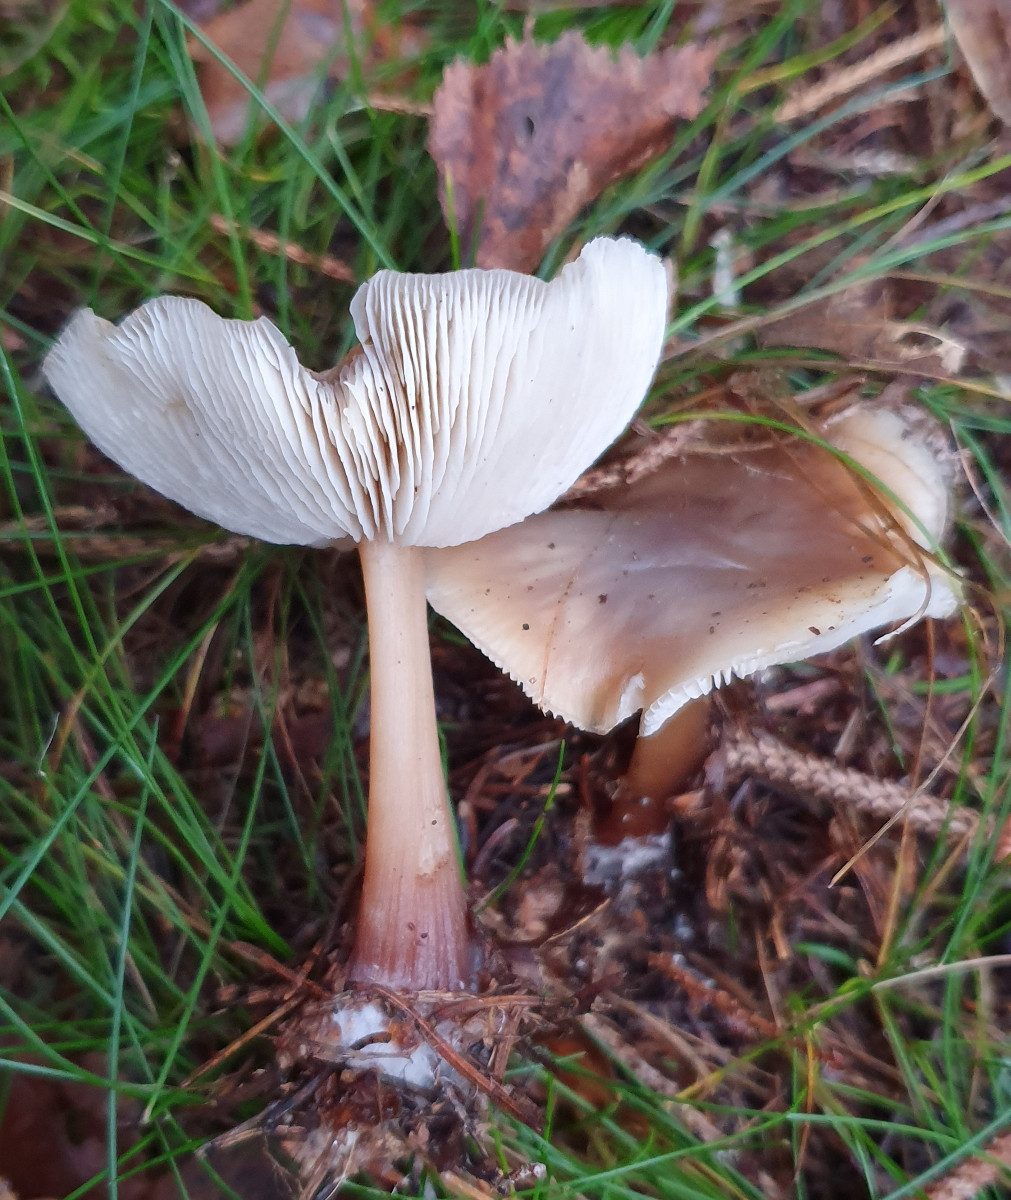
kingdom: Fungi
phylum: Basidiomycota
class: Agaricomycetes
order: Agaricales
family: Omphalotaceae
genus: Rhodocollybia
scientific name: Rhodocollybia asema
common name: horngrå fladhat
